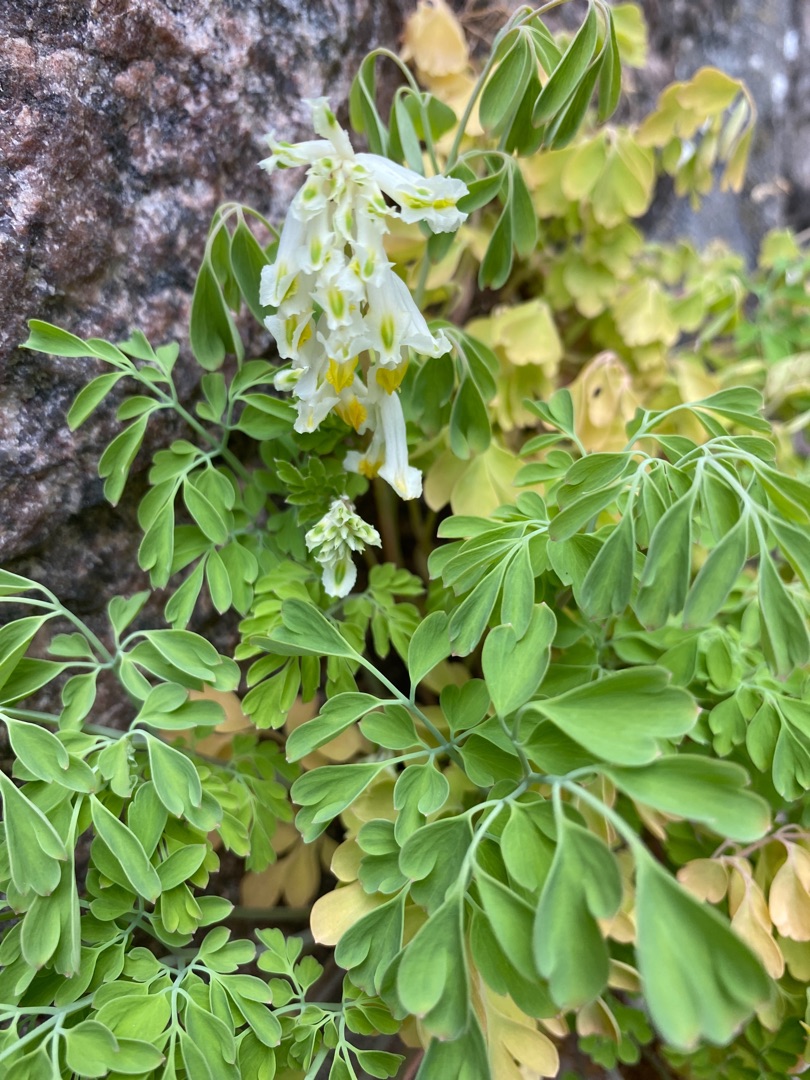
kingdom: Plantae
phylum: Tracheophyta
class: Magnoliopsida
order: Ranunculales
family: Papaveraceae
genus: Pseudofumaria
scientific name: Pseudofumaria alba
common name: Hvidgul lærkespore
